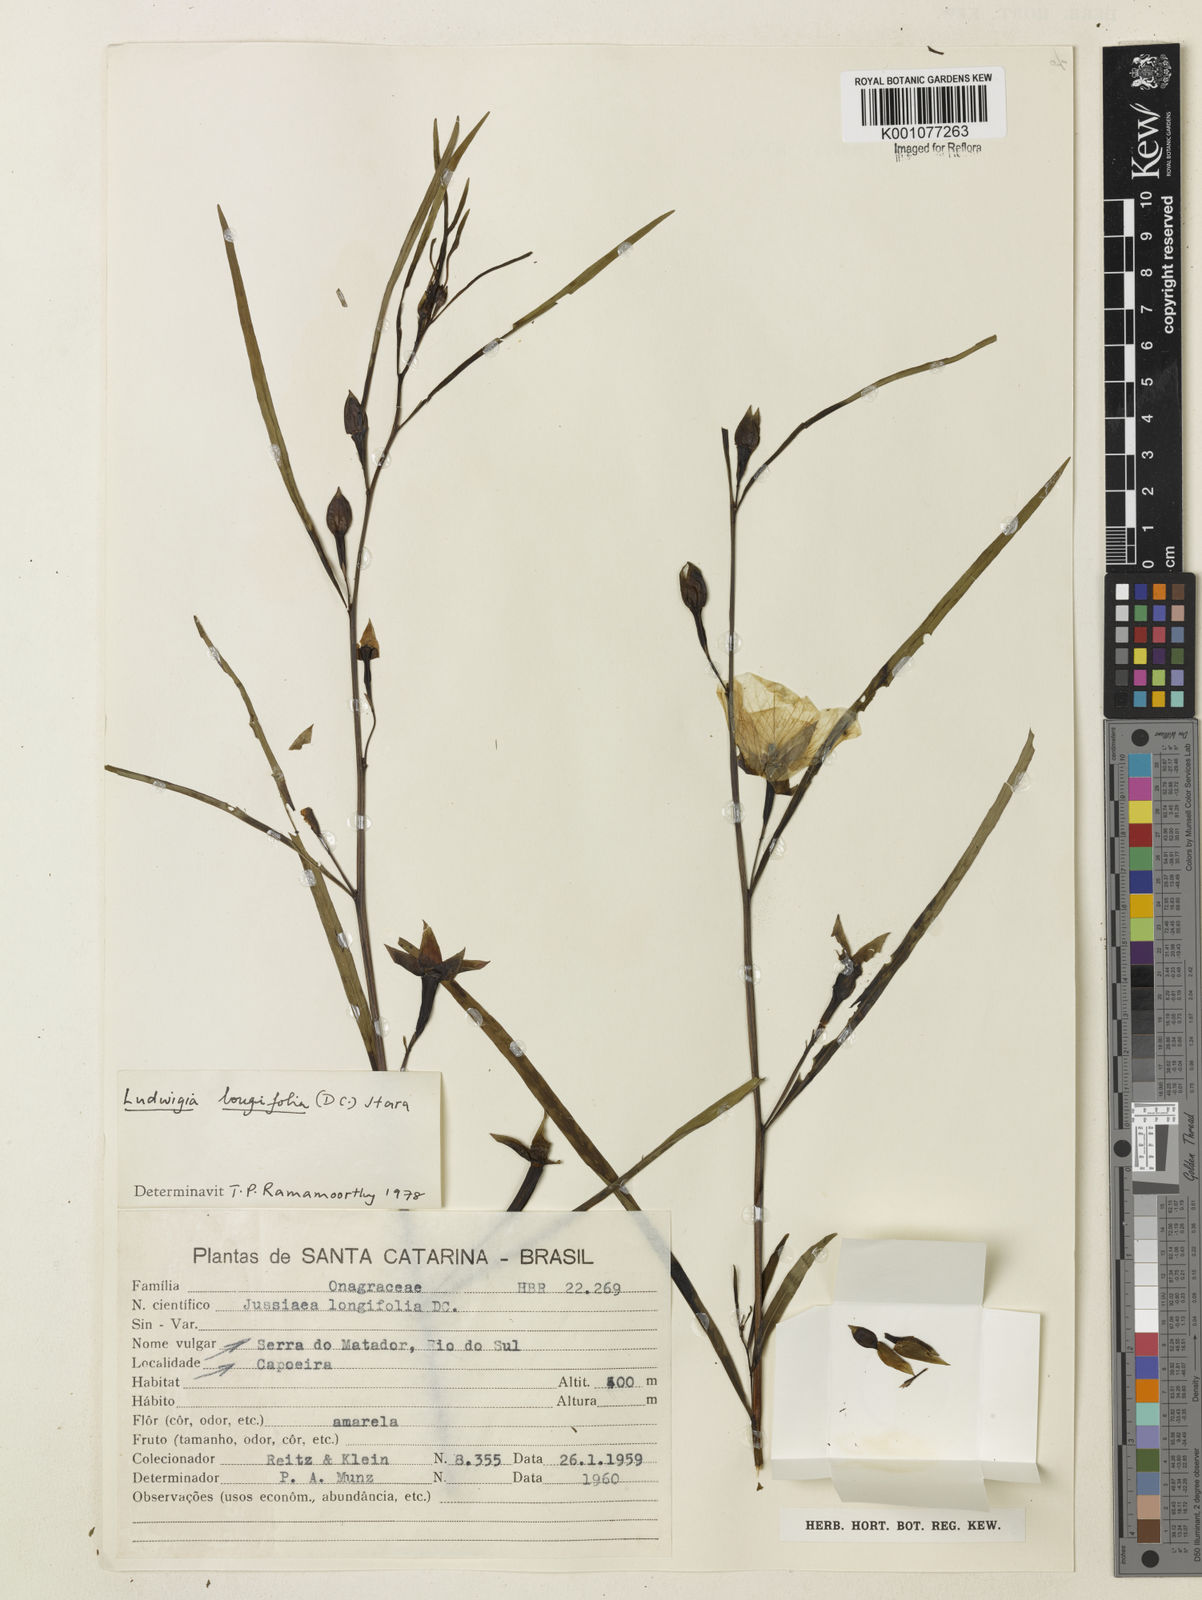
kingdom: Plantae
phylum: Tracheophyta
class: Magnoliopsida
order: Myrtales
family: Onagraceae
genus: Ludwigia
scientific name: Ludwigia longifolia
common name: Longleaf primrose-willow
